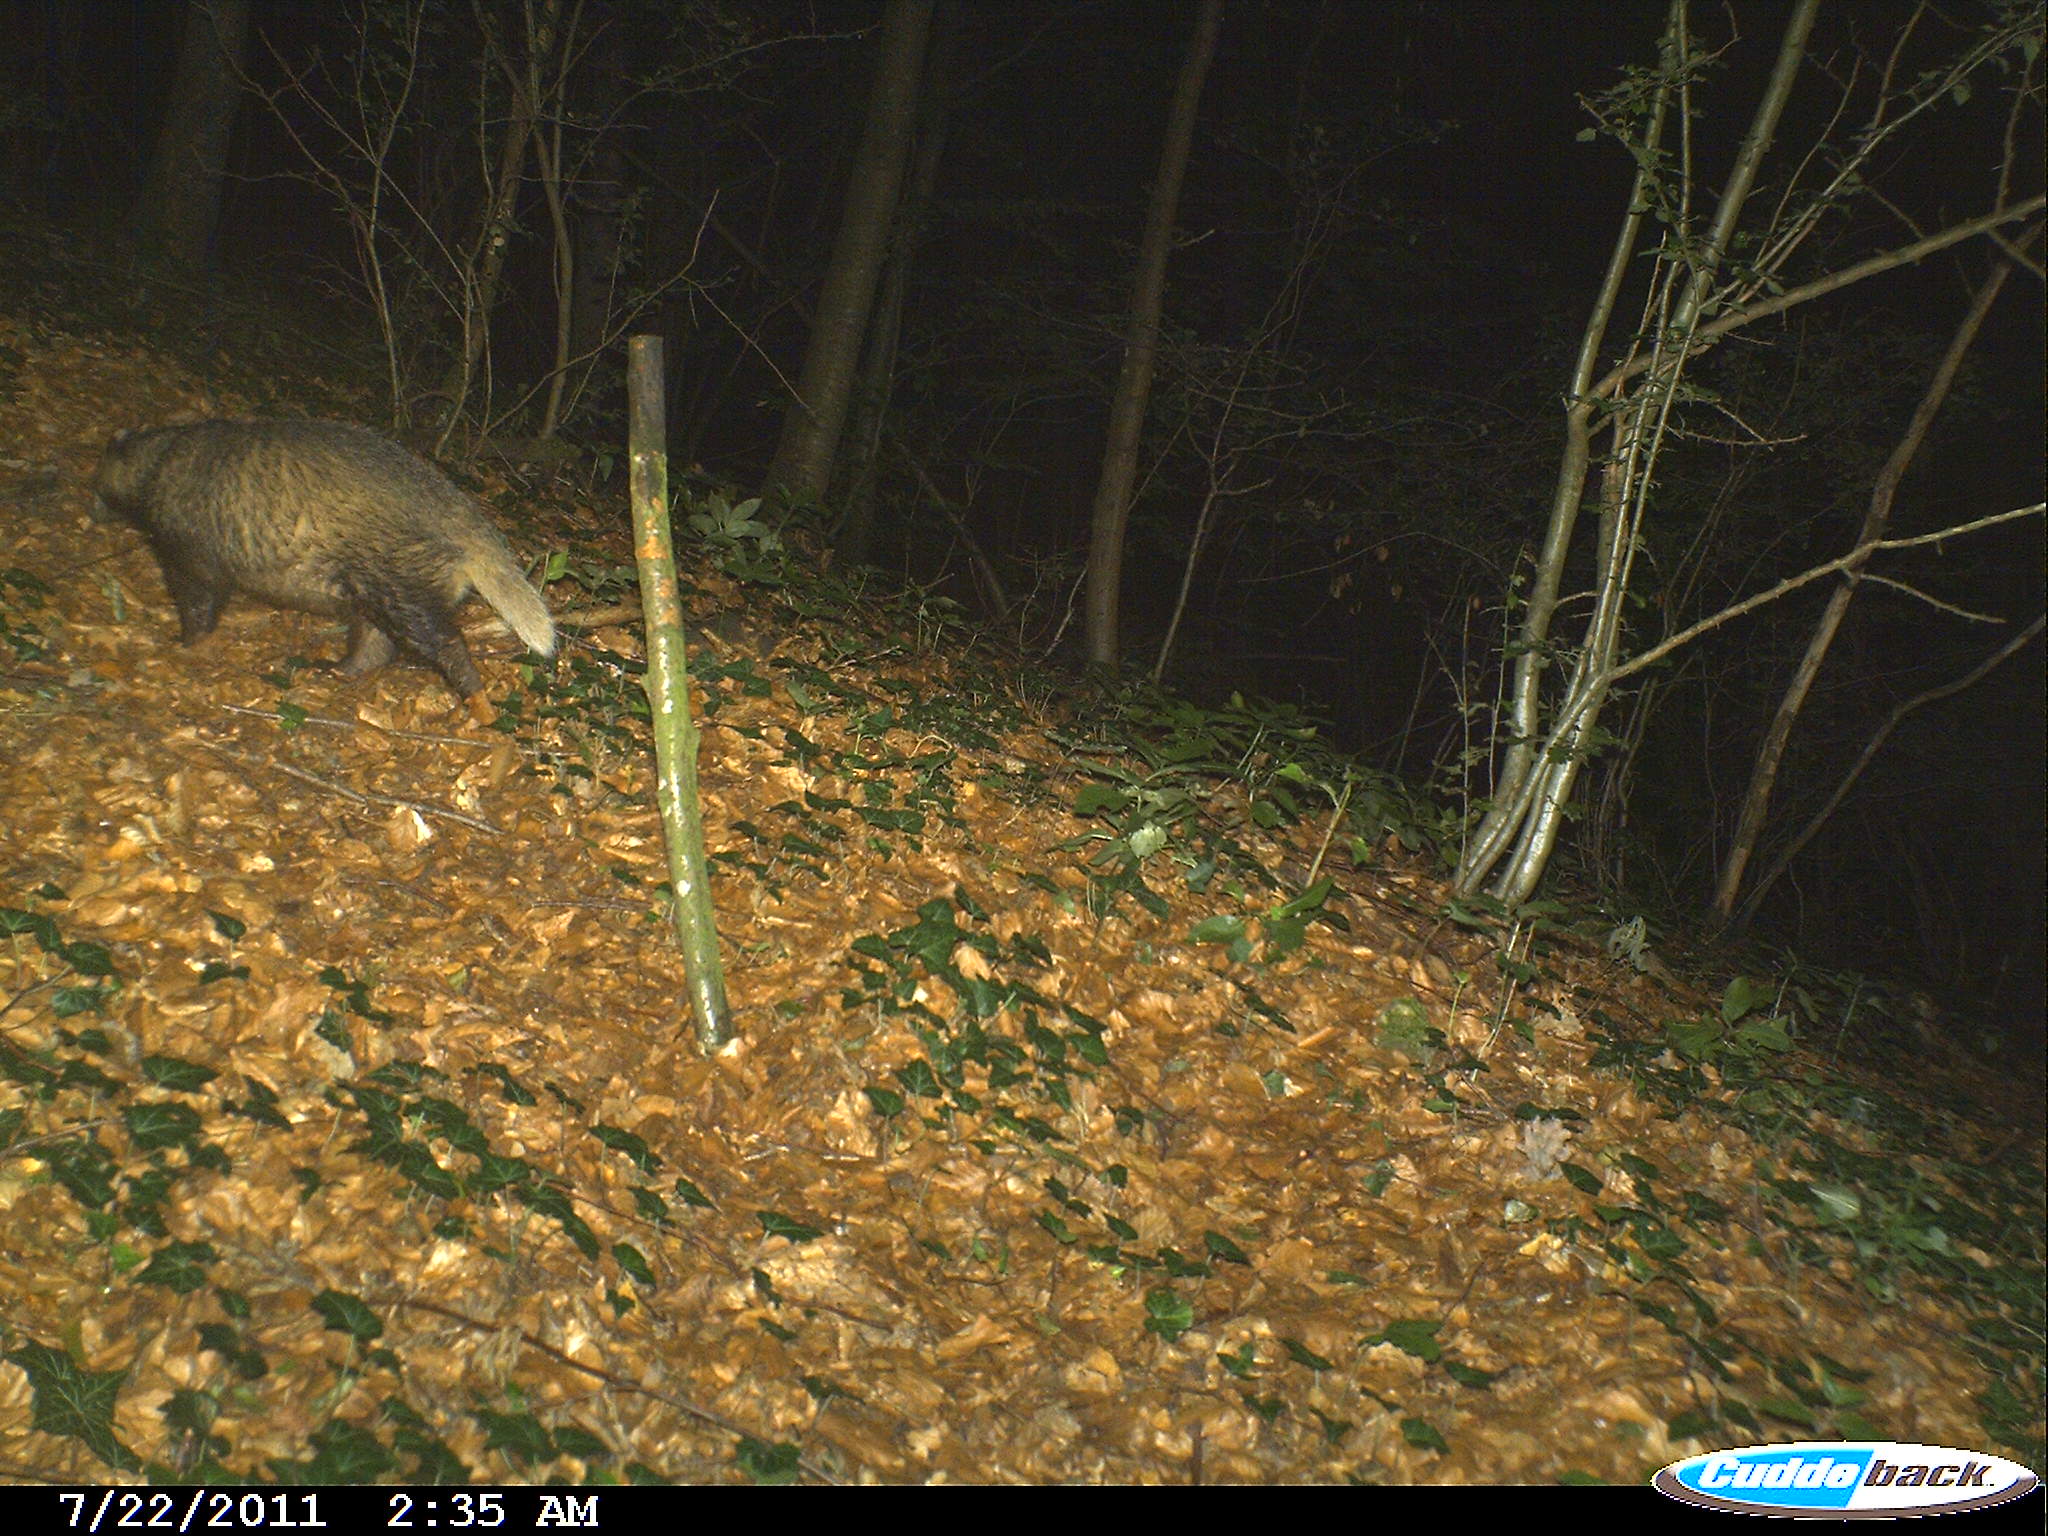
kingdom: Animalia
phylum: Chordata
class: Mammalia
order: Carnivora
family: Mustelidae
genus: Meles
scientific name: Meles meles
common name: Eurasian badger
